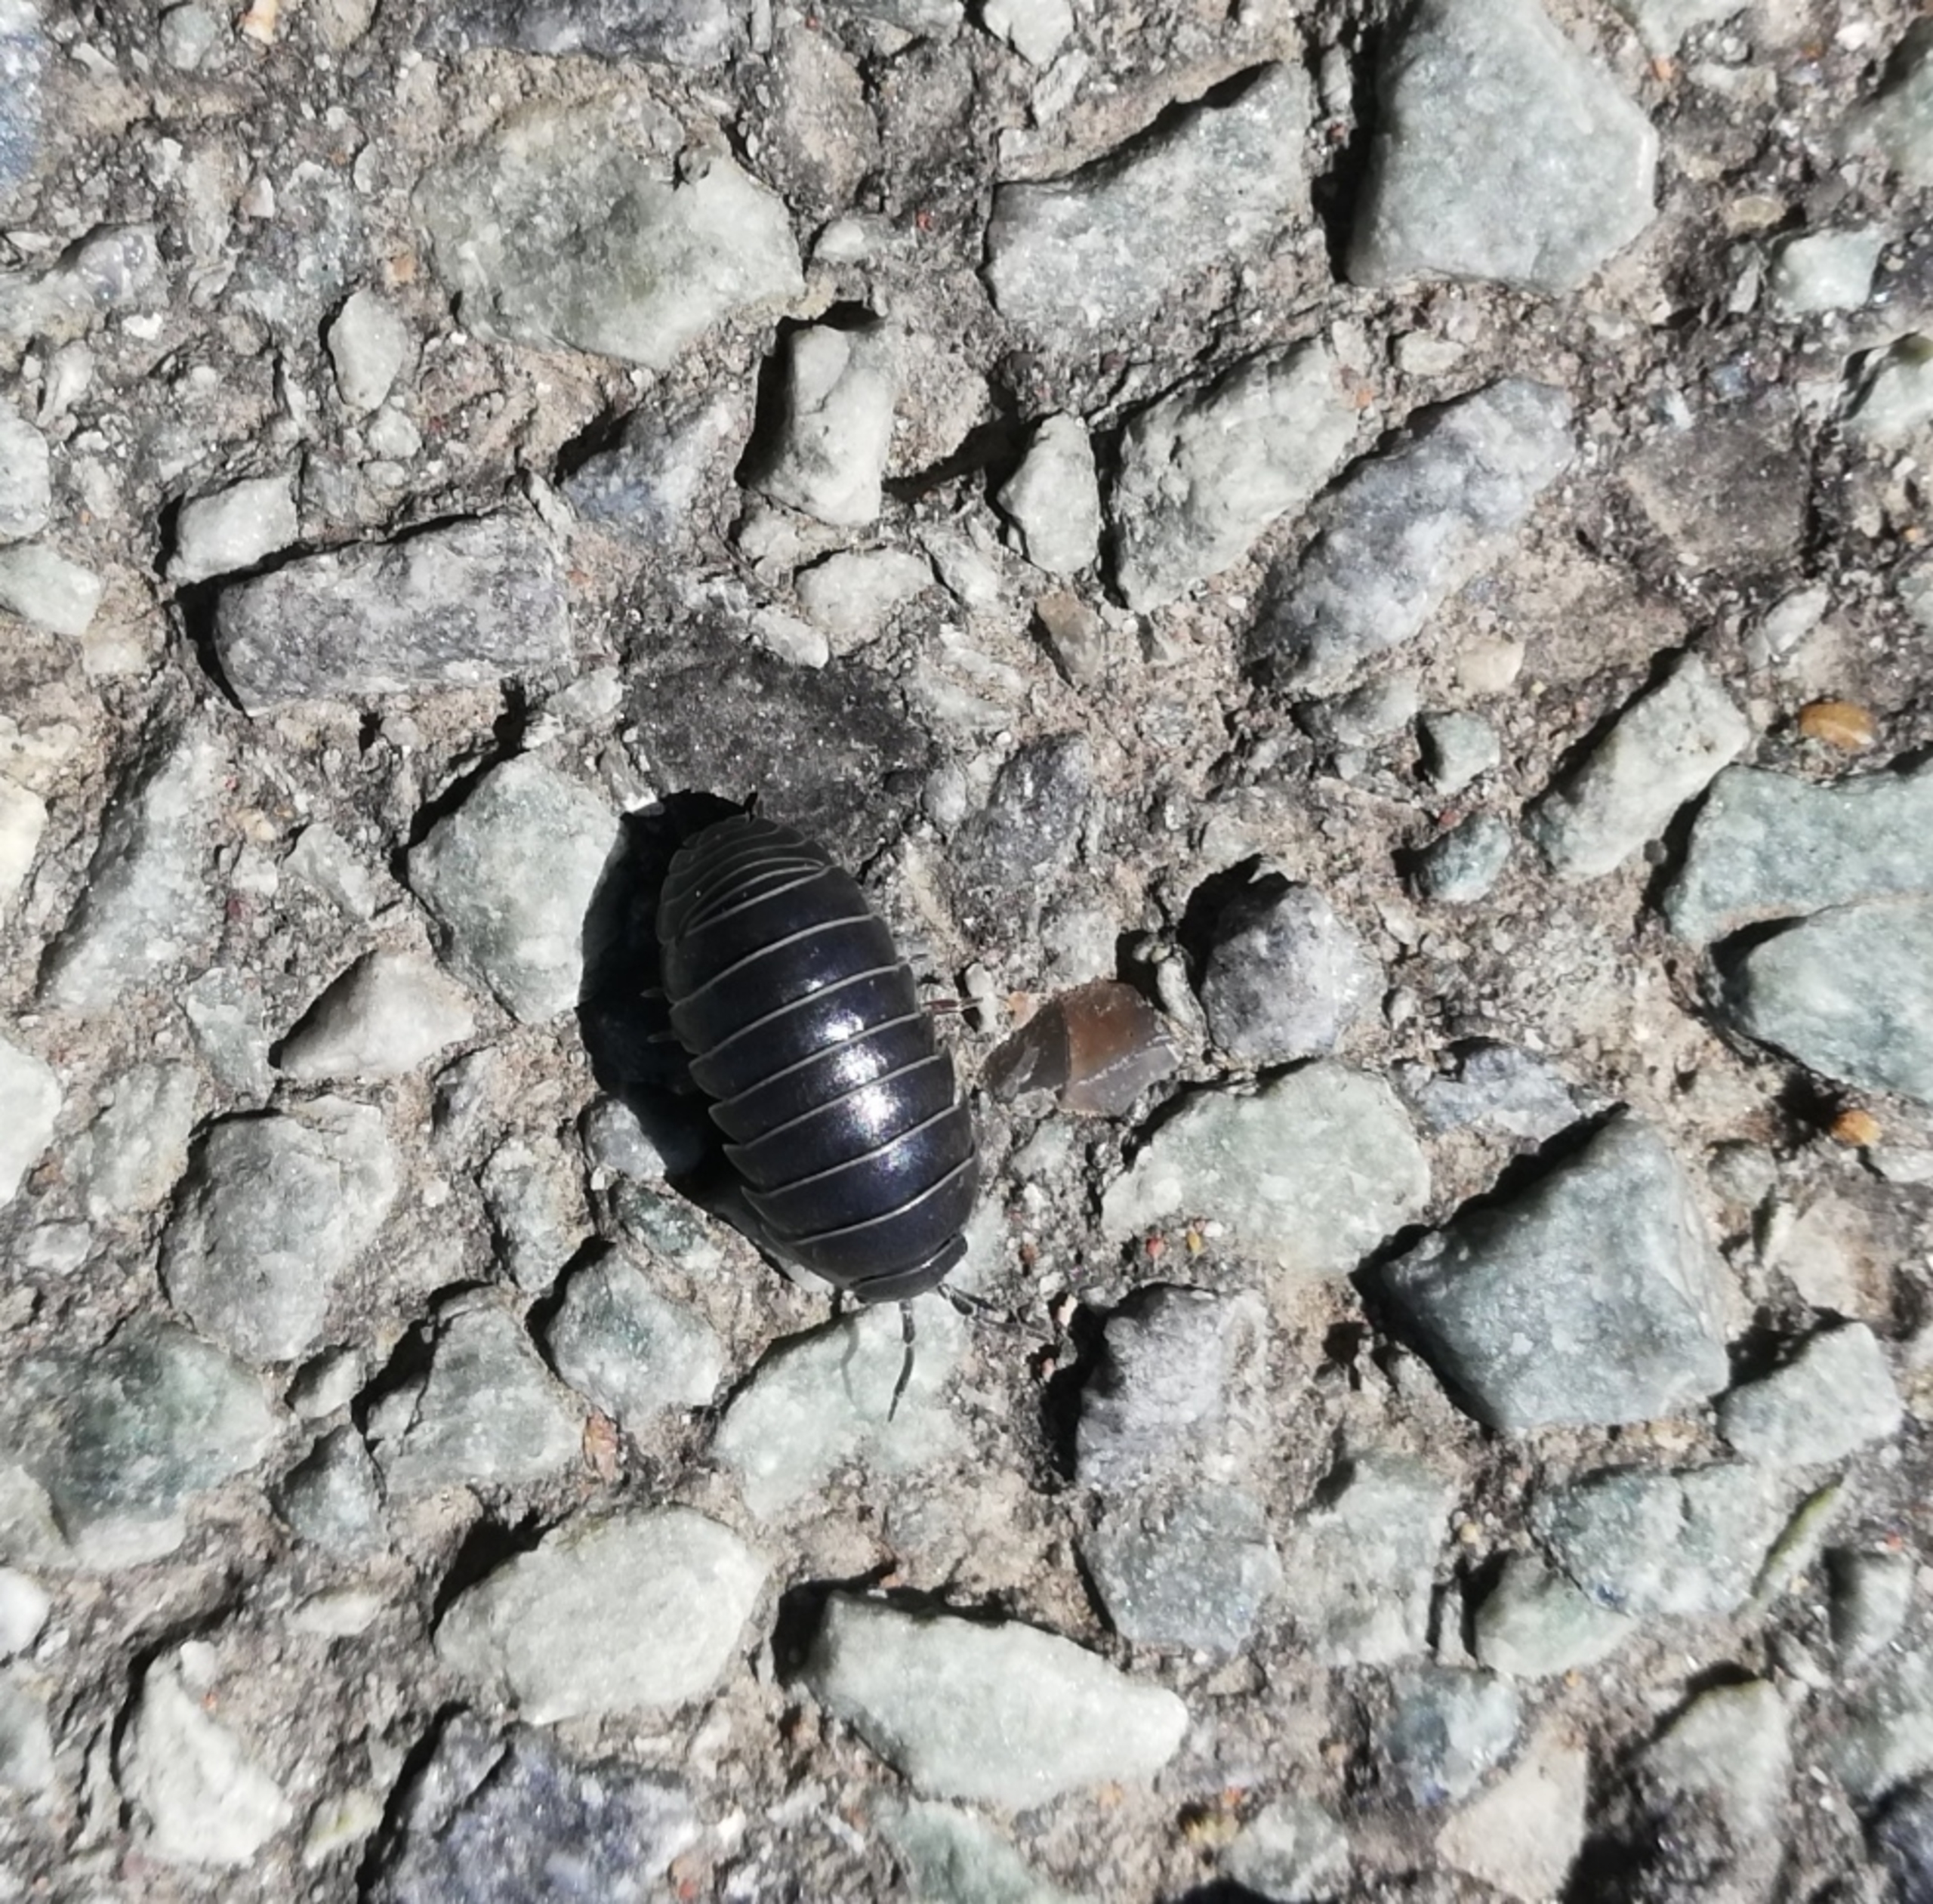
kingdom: Animalia
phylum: Arthropoda
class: Malacostraca
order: Isopoda
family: Armadillidiidae
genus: Armadillidium
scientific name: Armadillidium vulgare
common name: Almindelig kuglebænkebider
